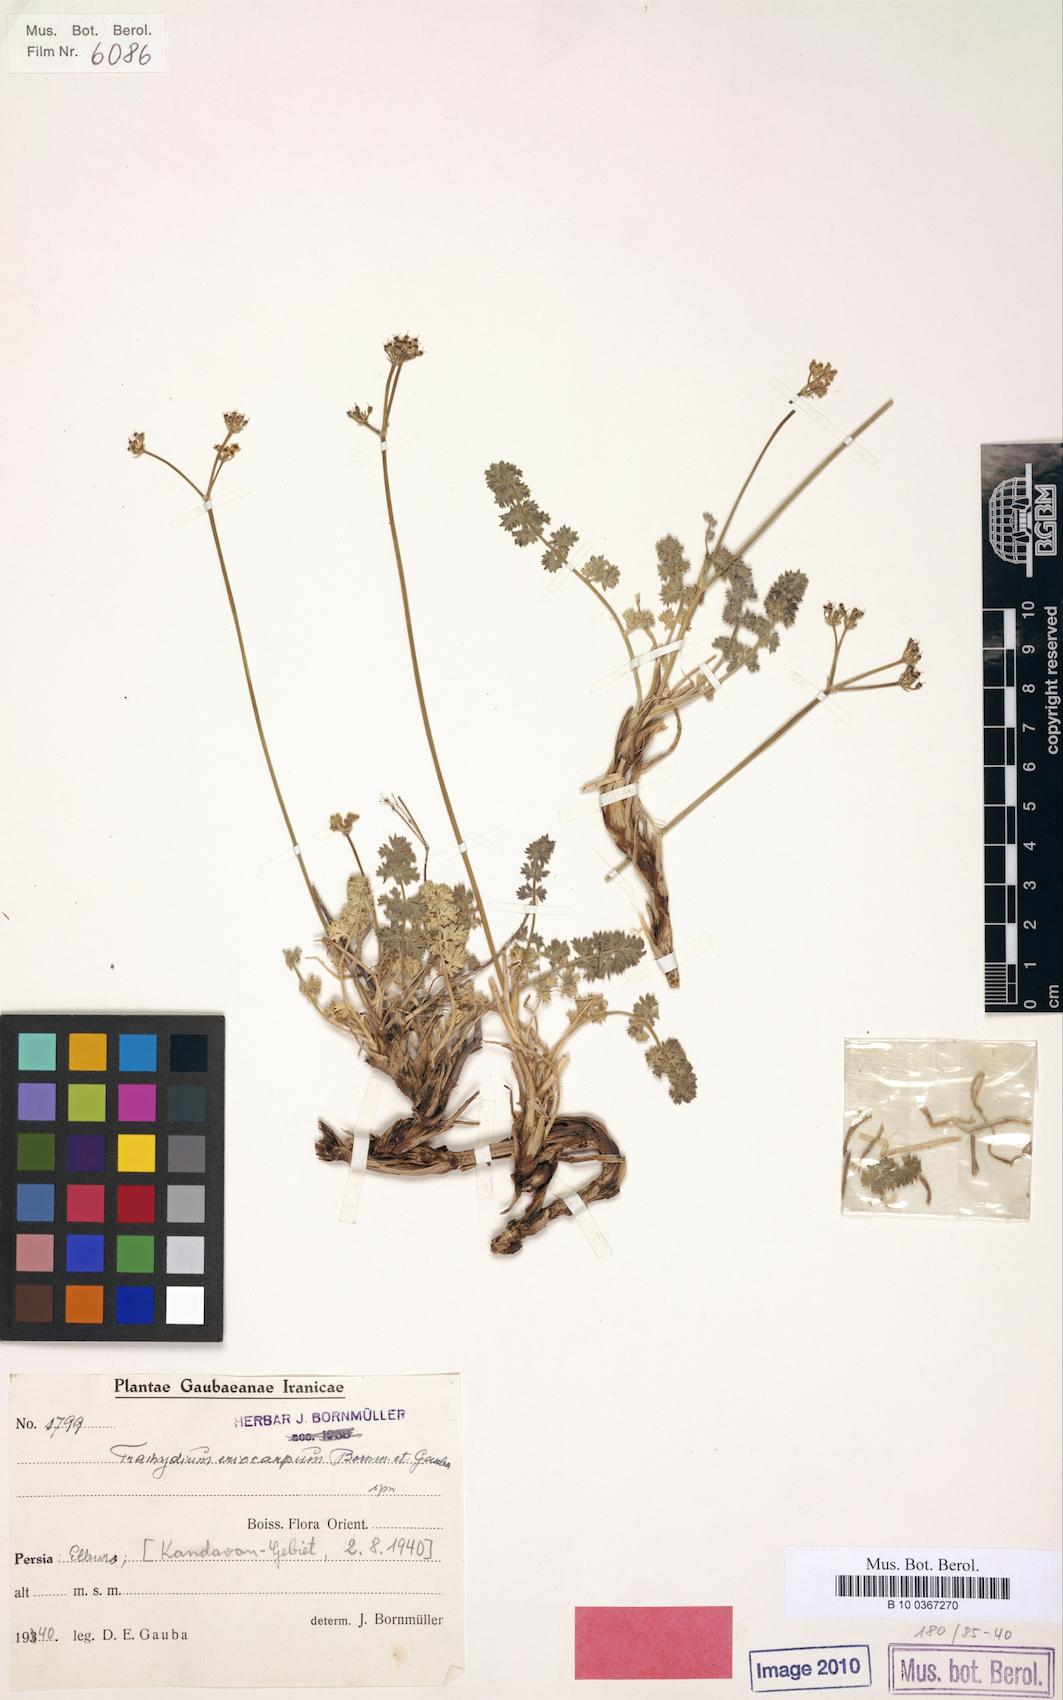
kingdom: Plantae
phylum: Tracheophyta
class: Magnoliopsida
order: Apiales
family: Apiaceae
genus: Semenovia
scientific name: Semenovia eriocarpa
